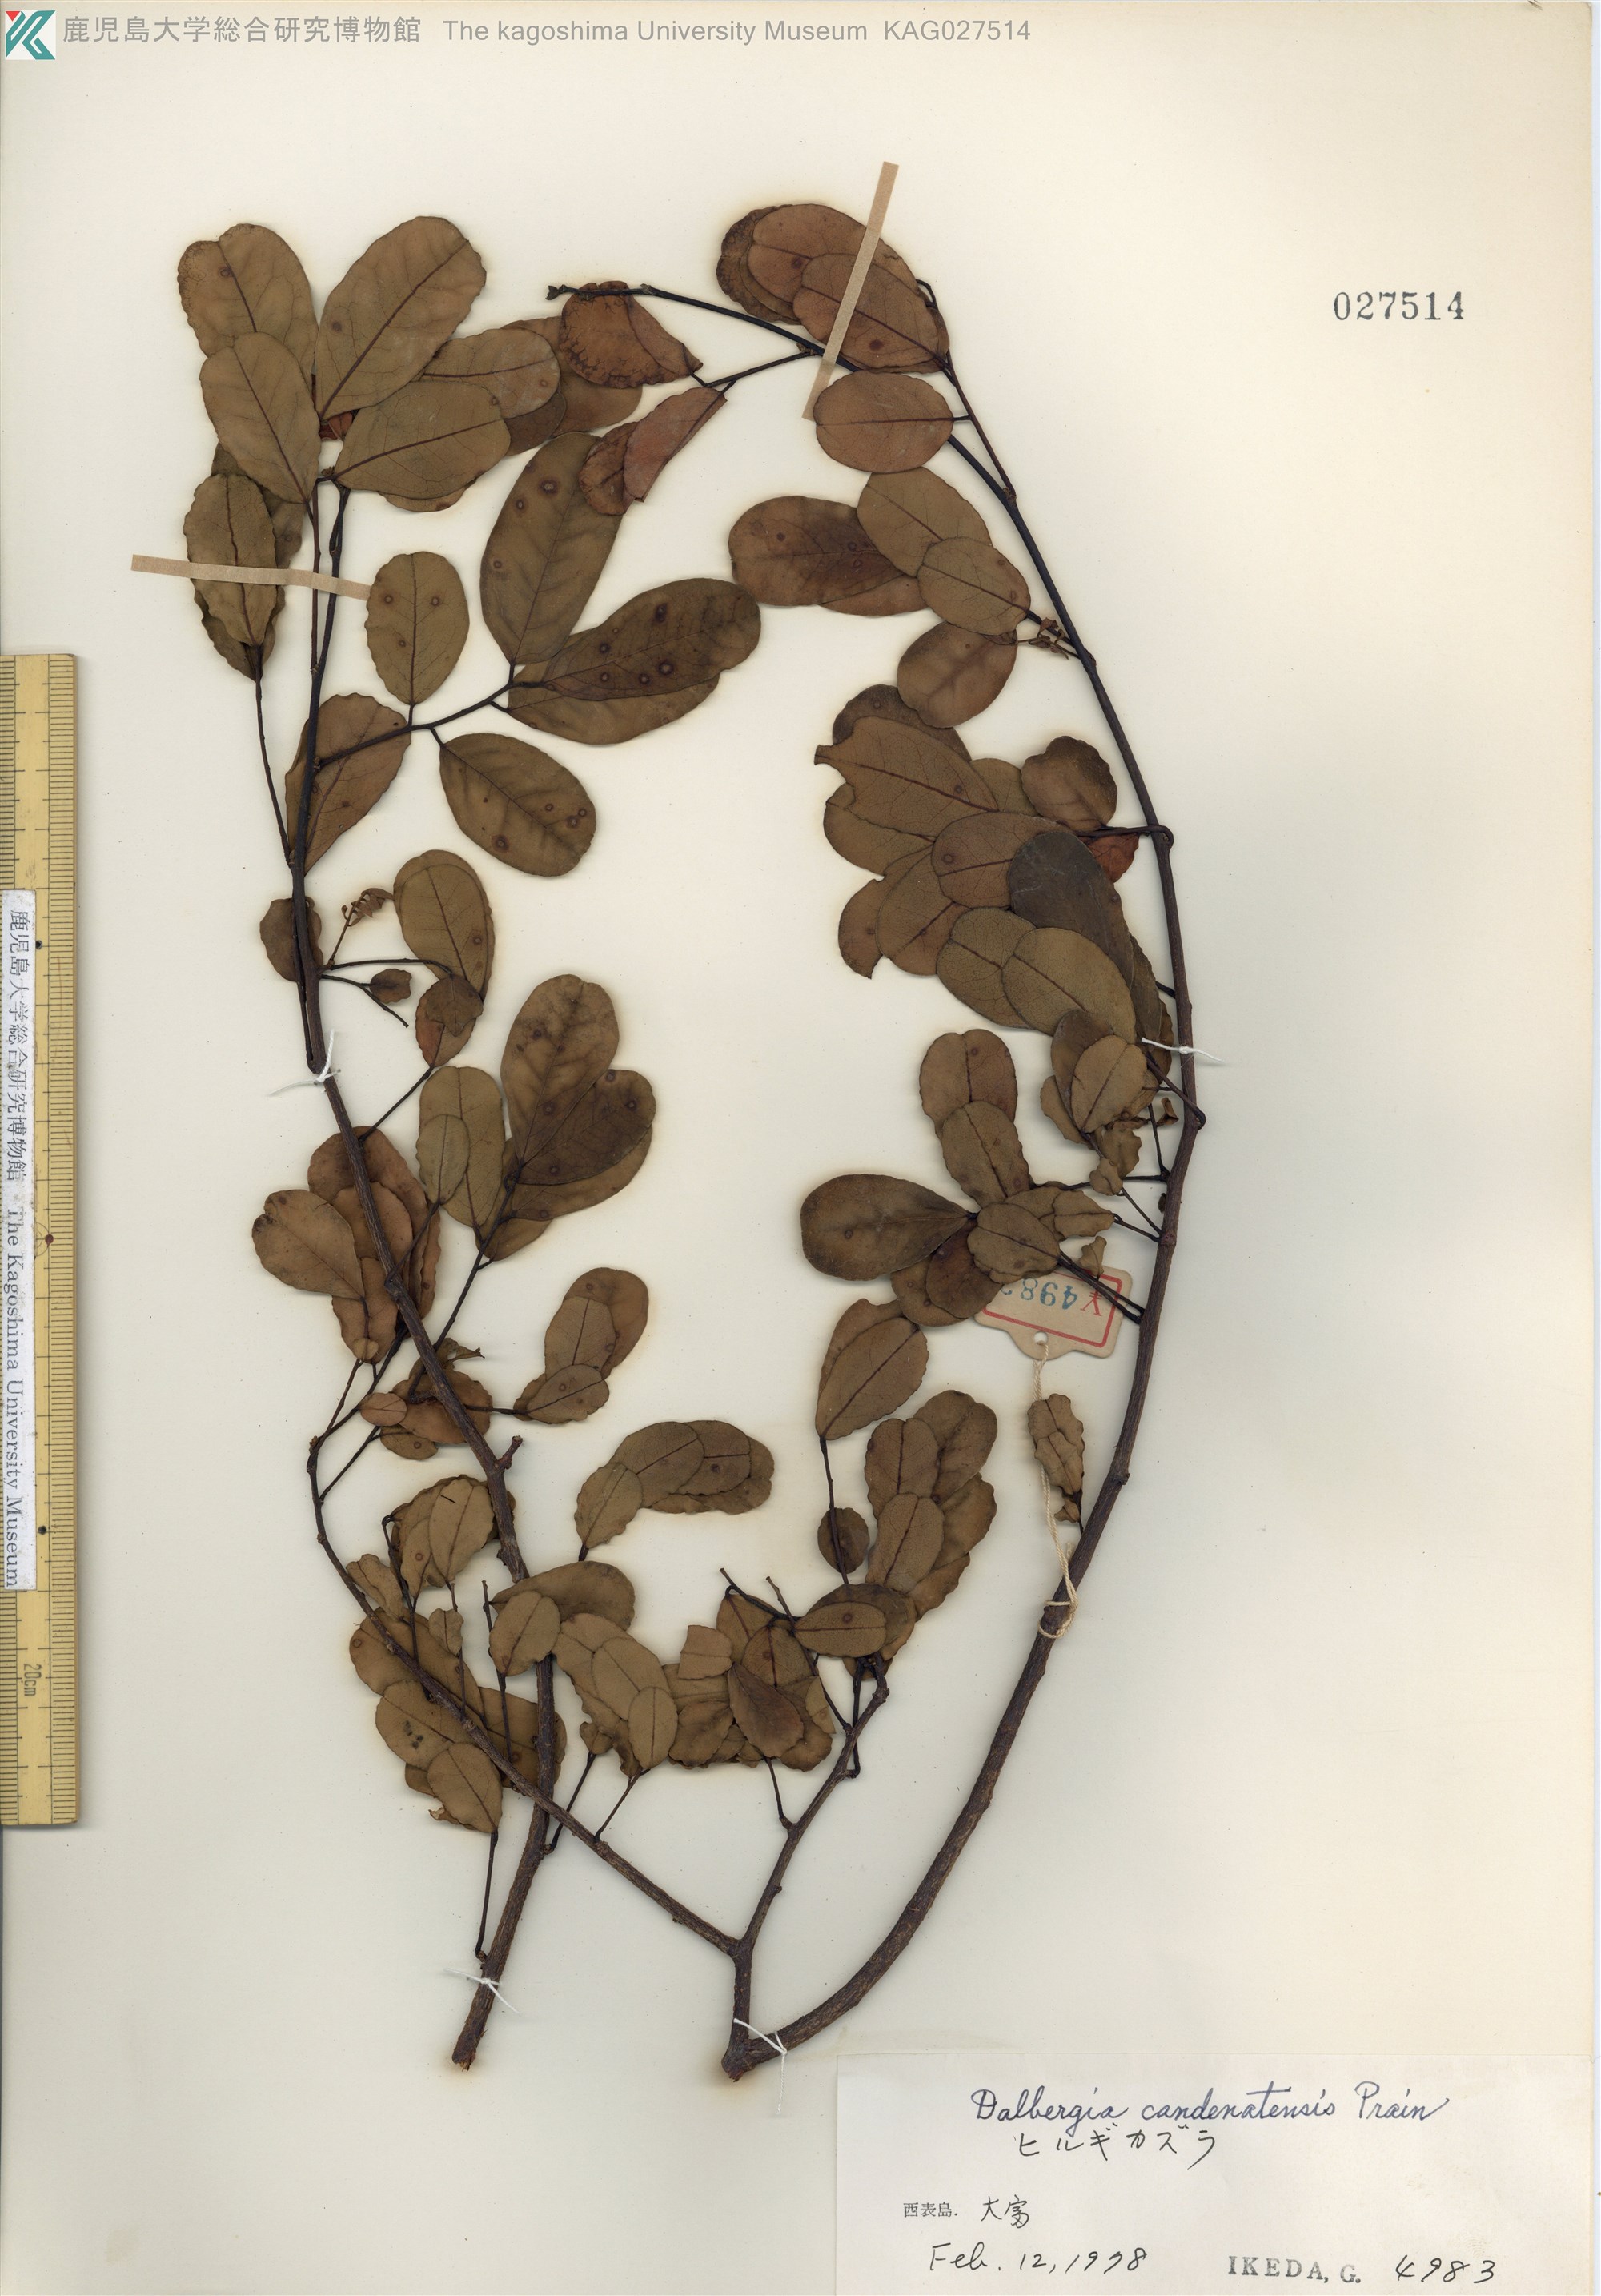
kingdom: Plantae
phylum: Tracheophyta
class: Magnoliopsida
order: Fabales
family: Fabaceae
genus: Dalbergia
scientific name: Dalbergia candenatensis
